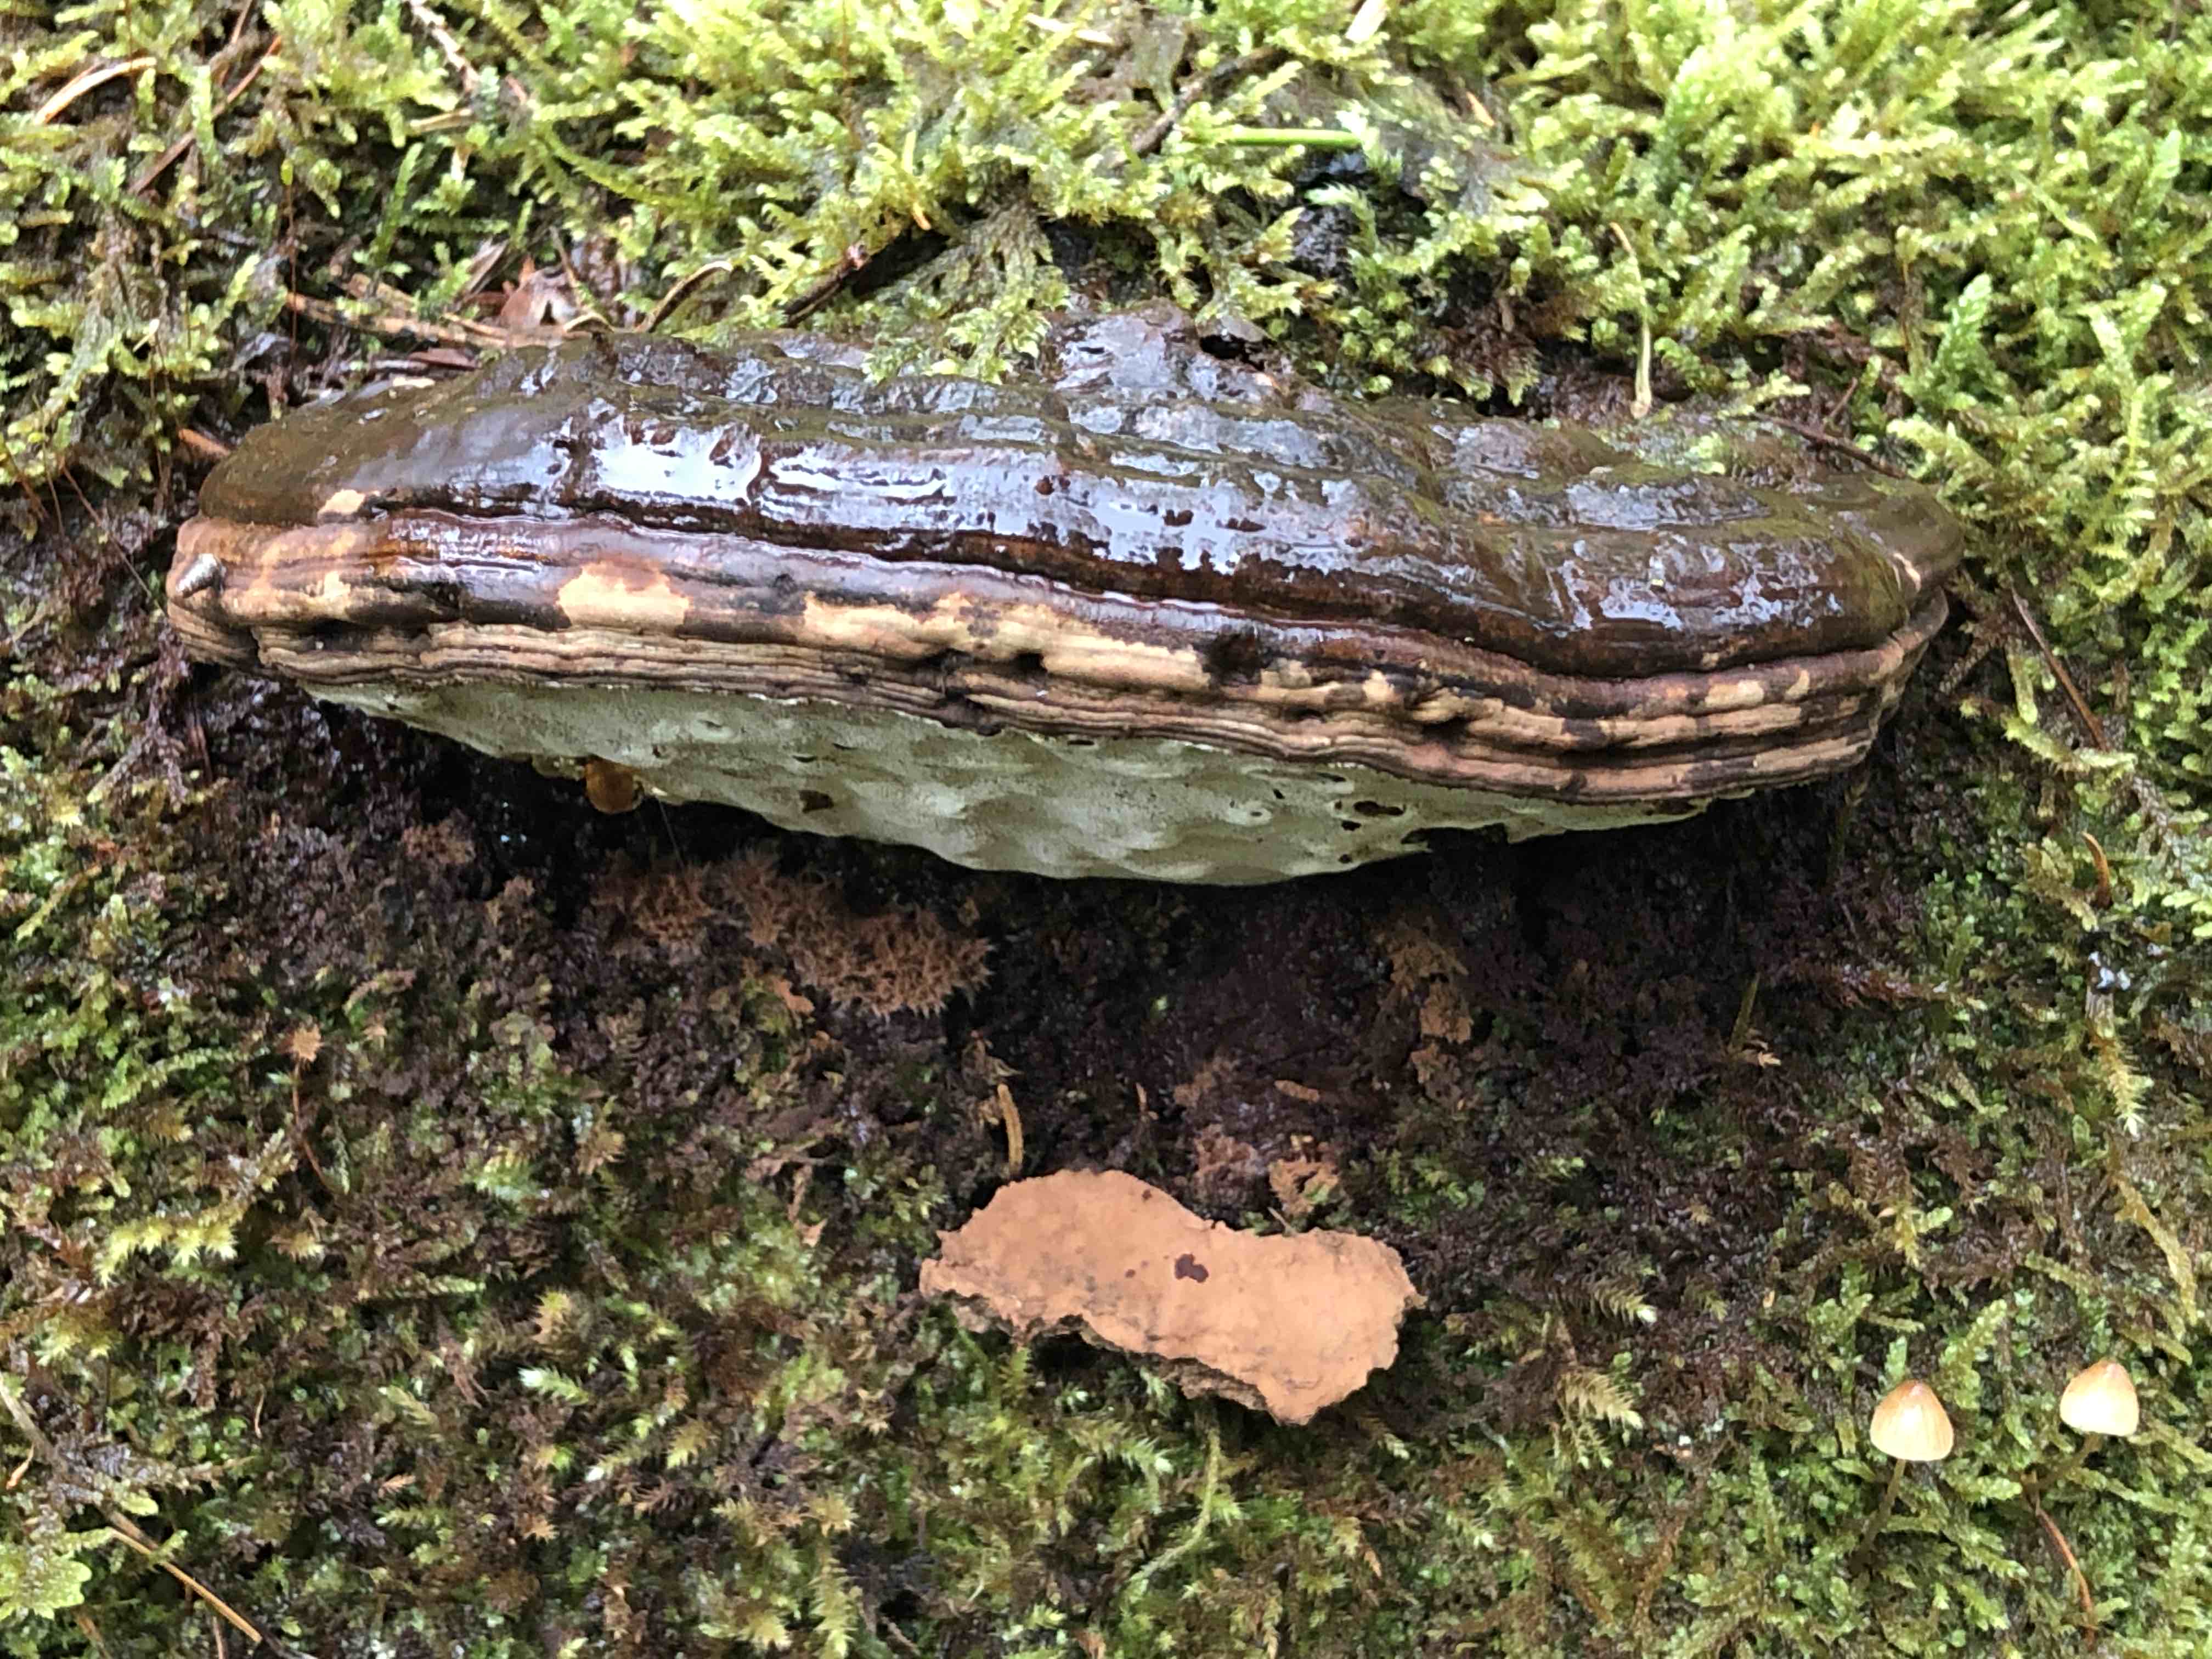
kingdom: Fungi
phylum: Basidiomycota
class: Agaricomycetes
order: Polyporales
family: Polyporaceae
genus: Ganoderma
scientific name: Ganoderma applanatum
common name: flad lakporesvamp
